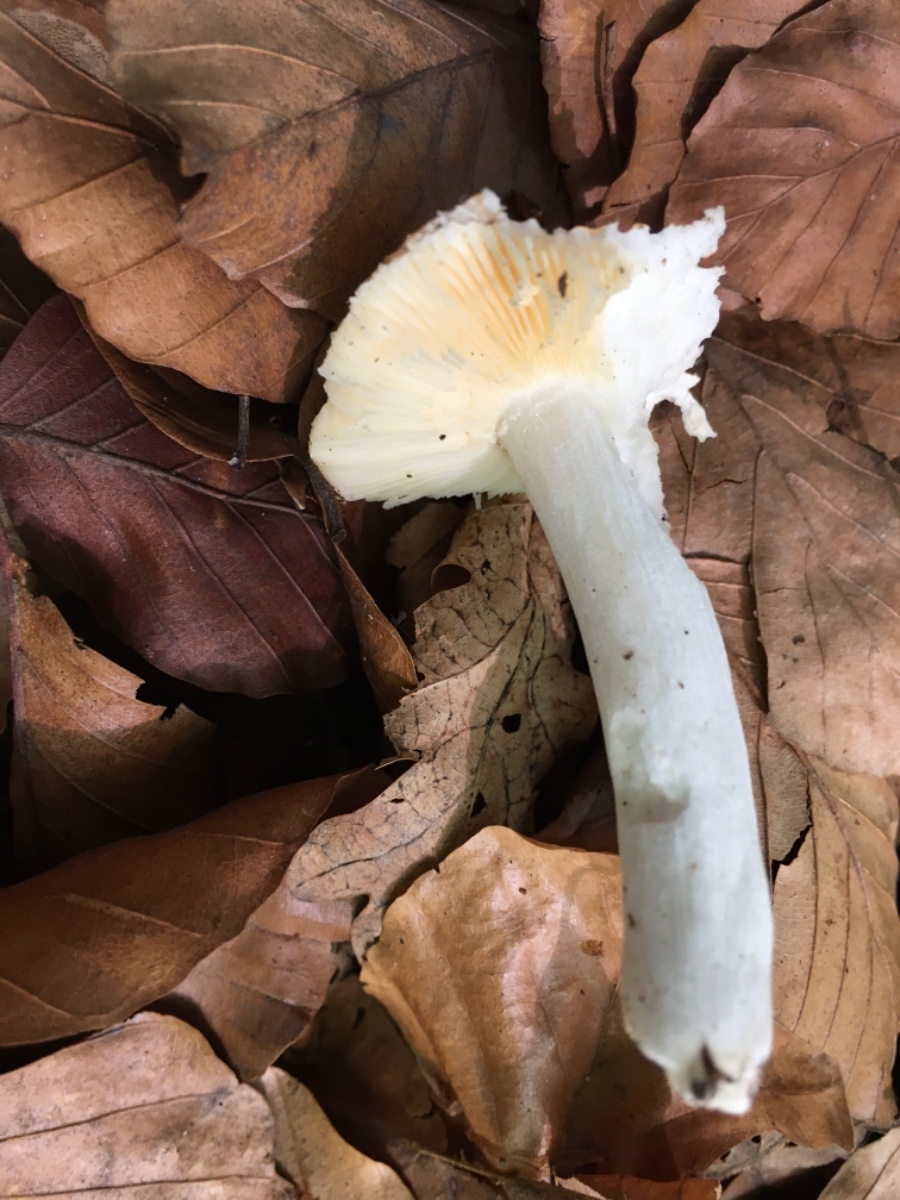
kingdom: Fungi
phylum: Basidiomycota
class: Agaricomycetes
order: Russulales
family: Russulaceae
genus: Russula
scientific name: Russula risigallina
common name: abrikos-skørhat
